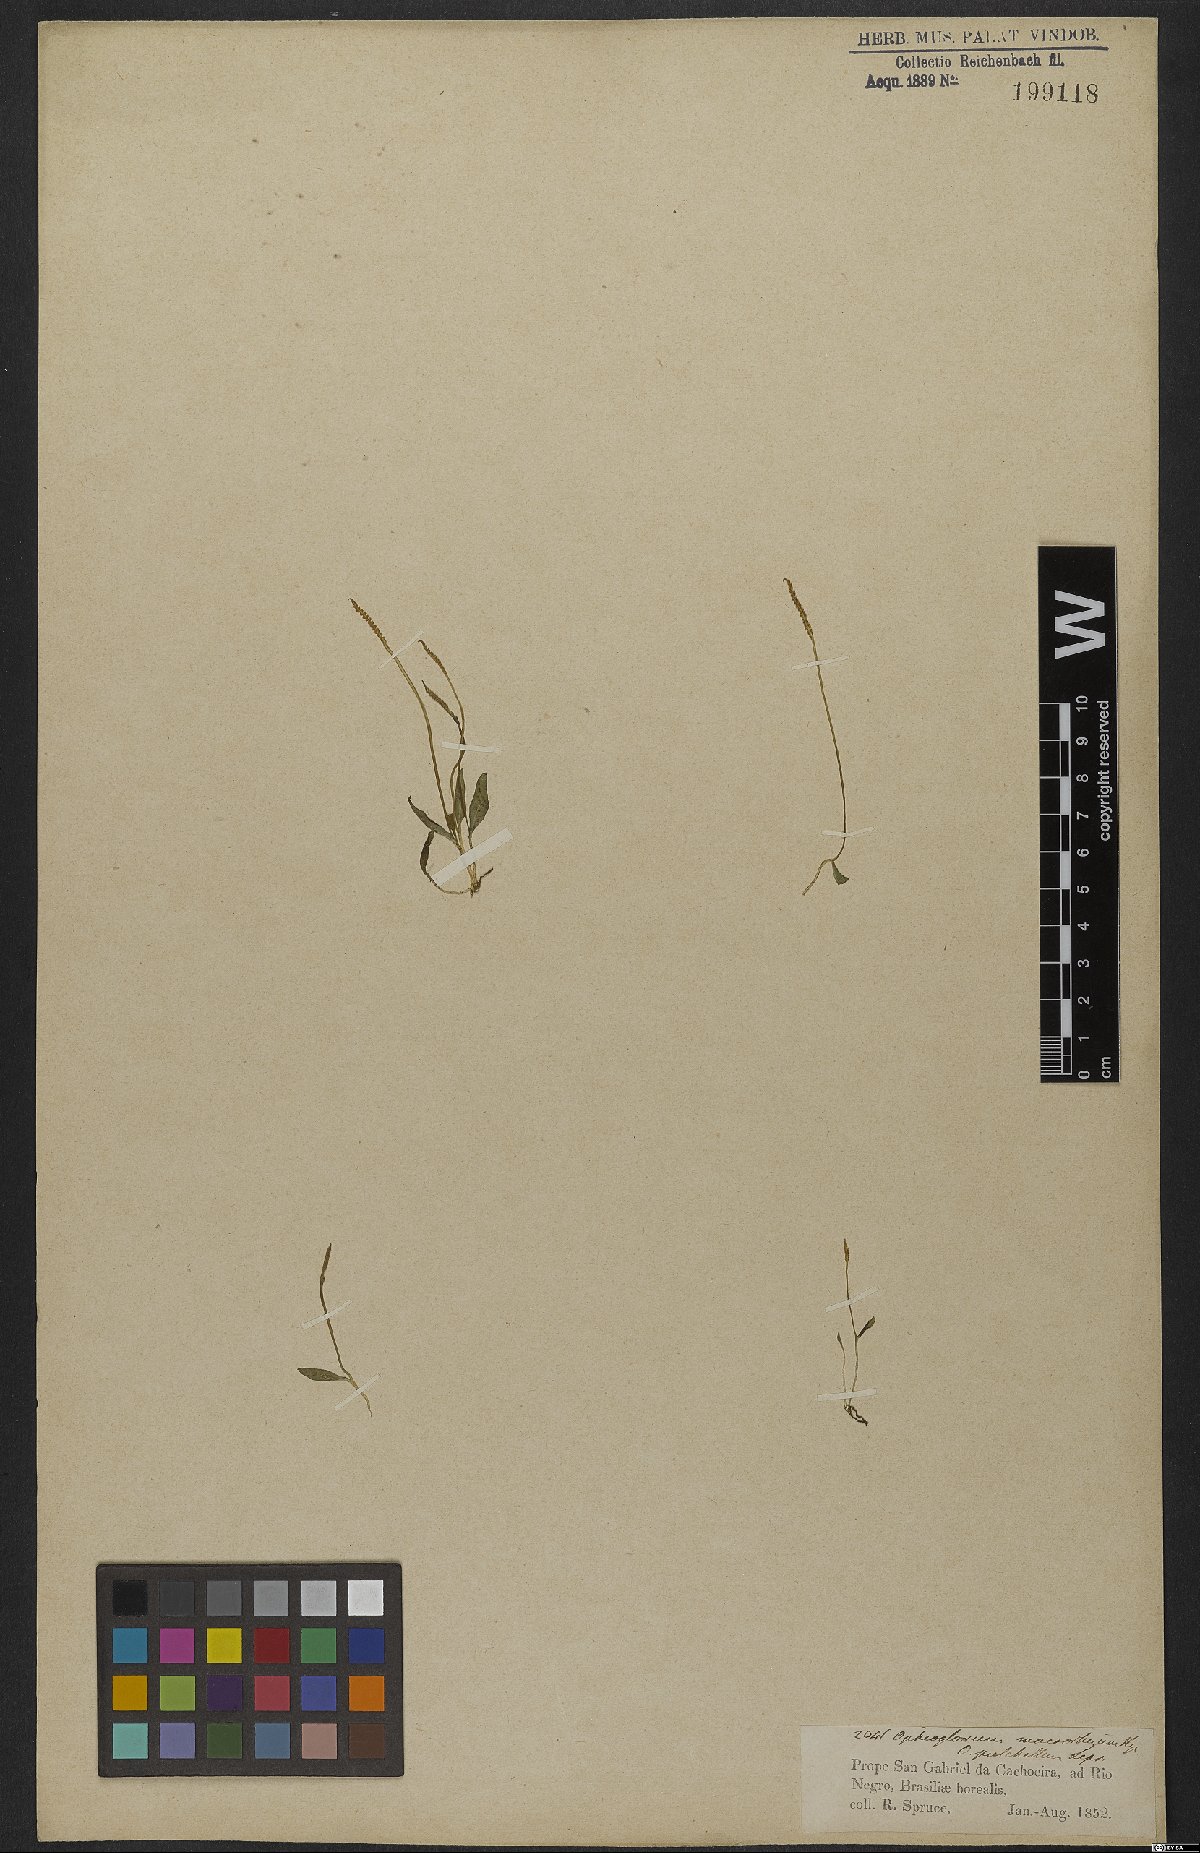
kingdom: Plantae
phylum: Tracheophyta
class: Polypodiopsida
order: Ophioglossales
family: Ophioglossaceae
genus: Ophioglossum
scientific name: Ophioglossum parvifolium
